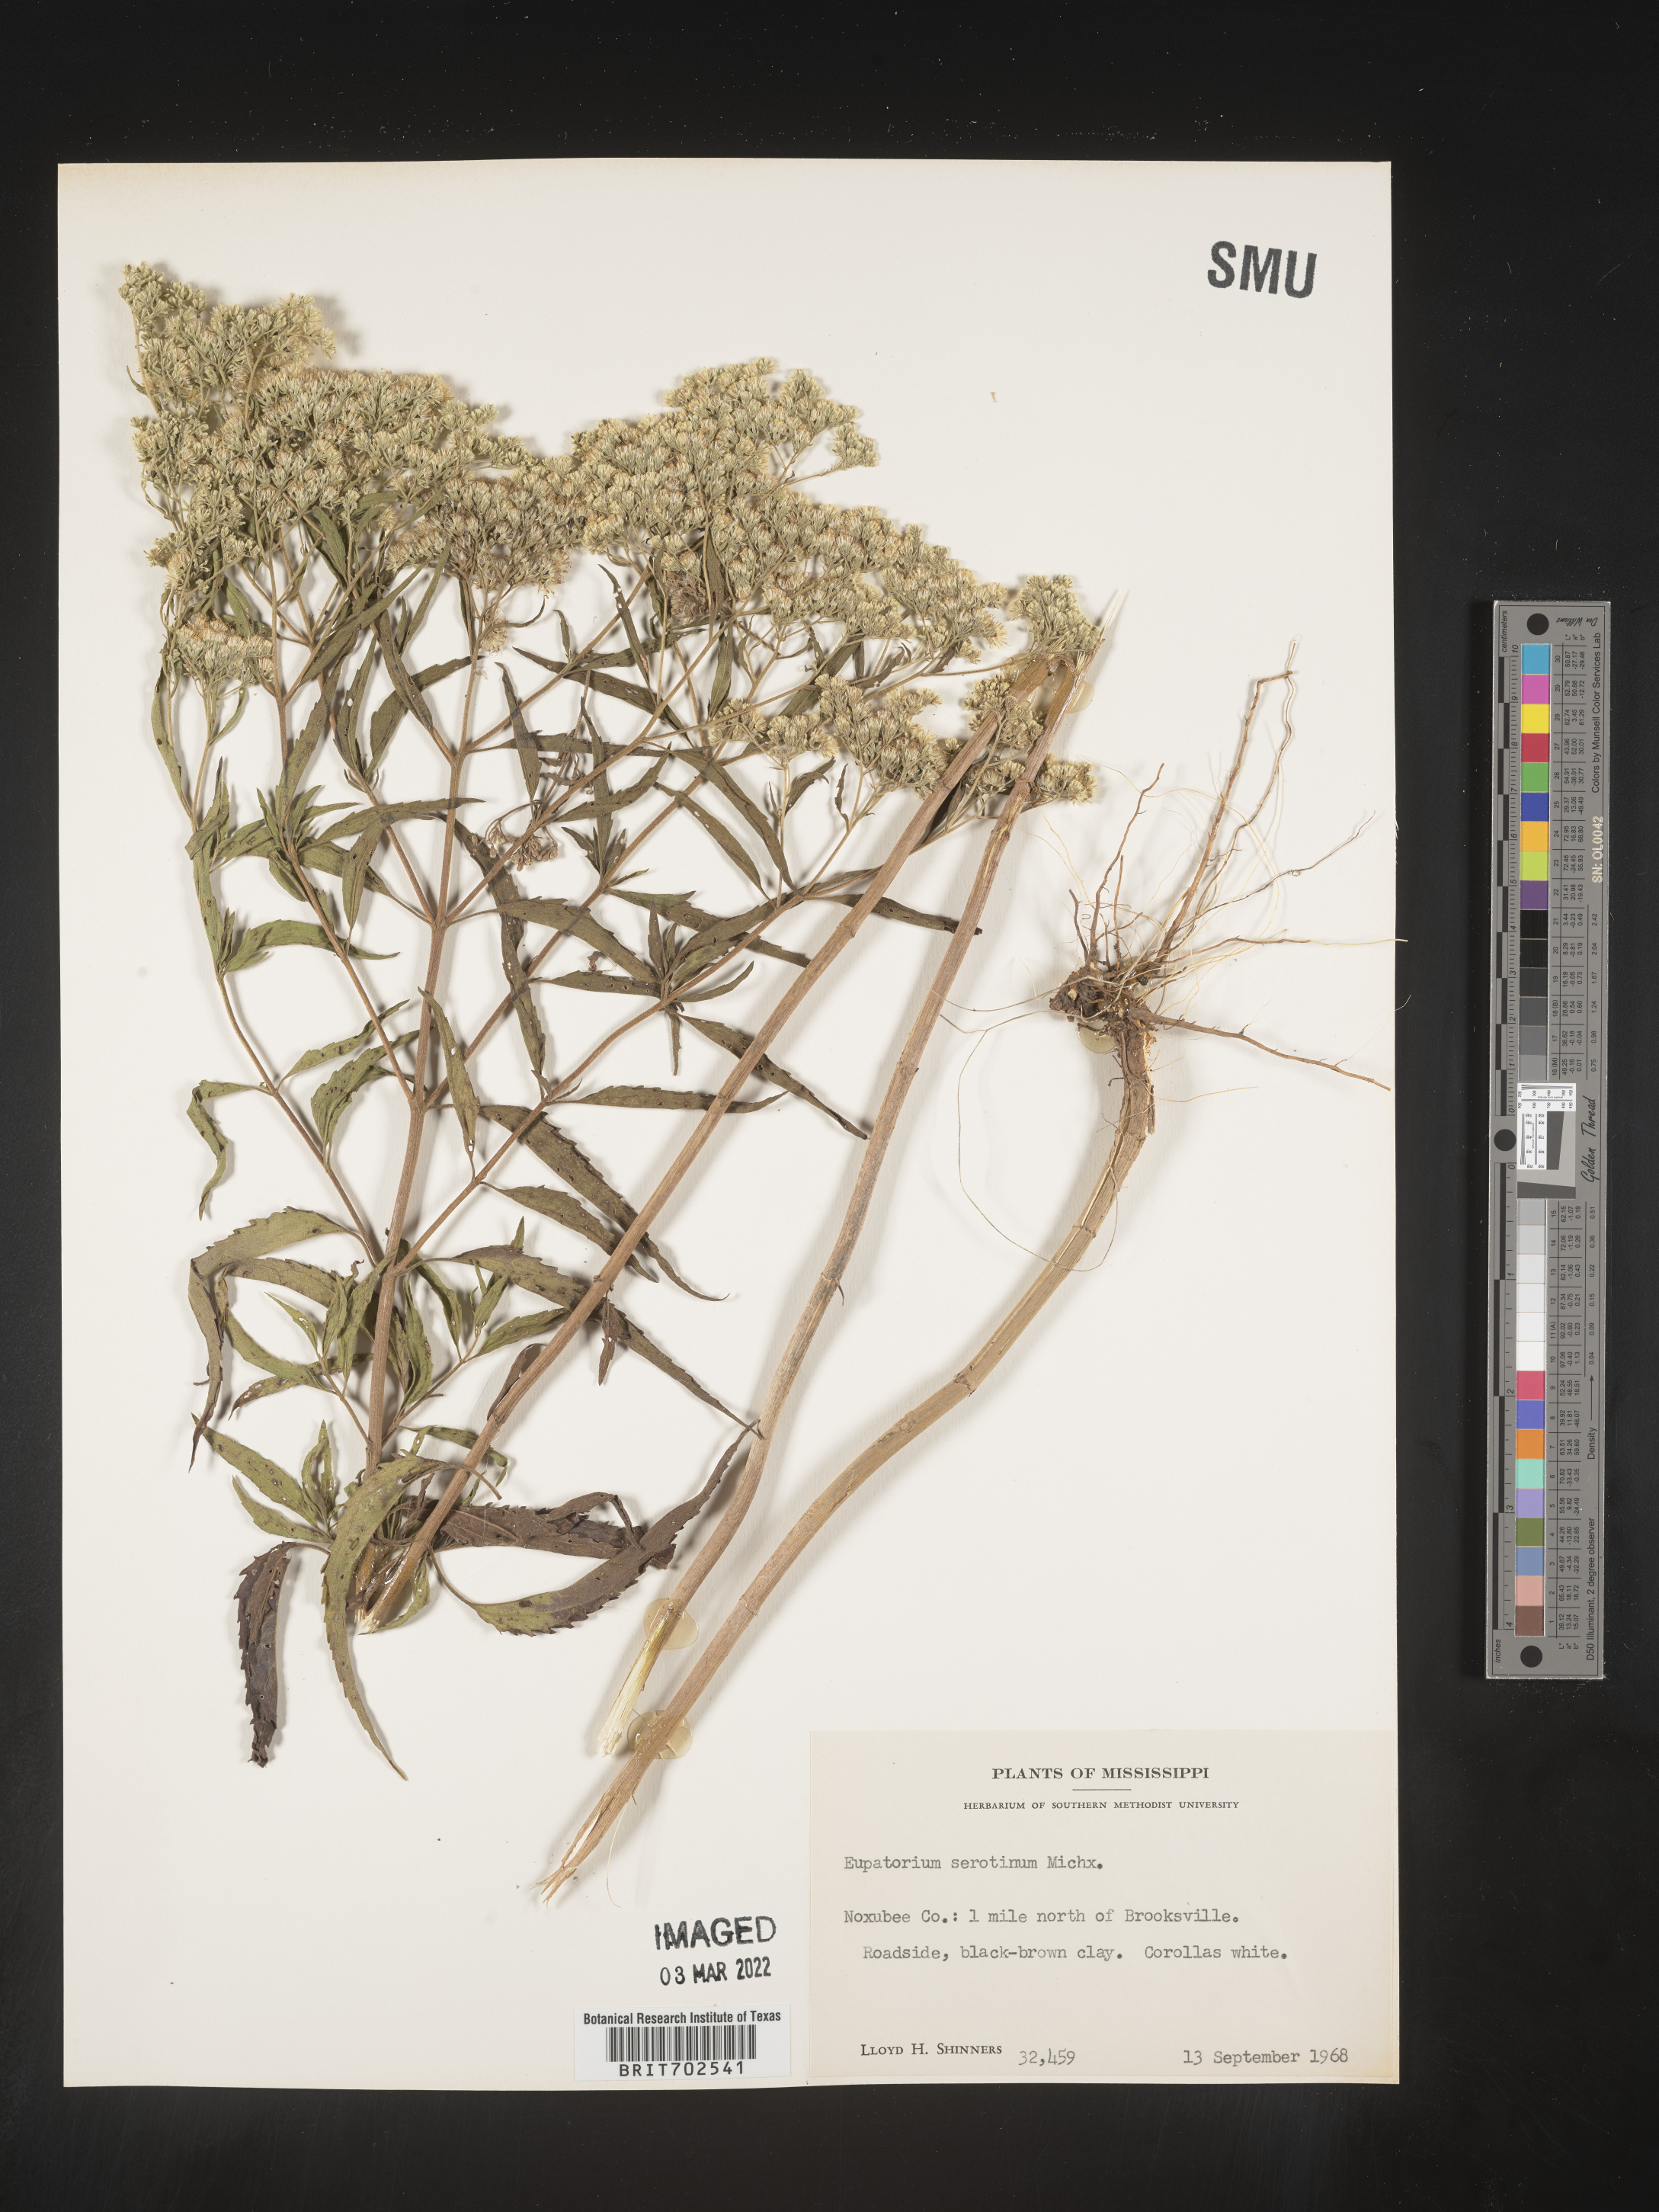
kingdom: Plantae
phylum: Tracheophyta
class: Magnoliopsida
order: Asterales
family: Asteraceae
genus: Eupatorium
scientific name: Eupatorium serotinum
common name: Late boneset
